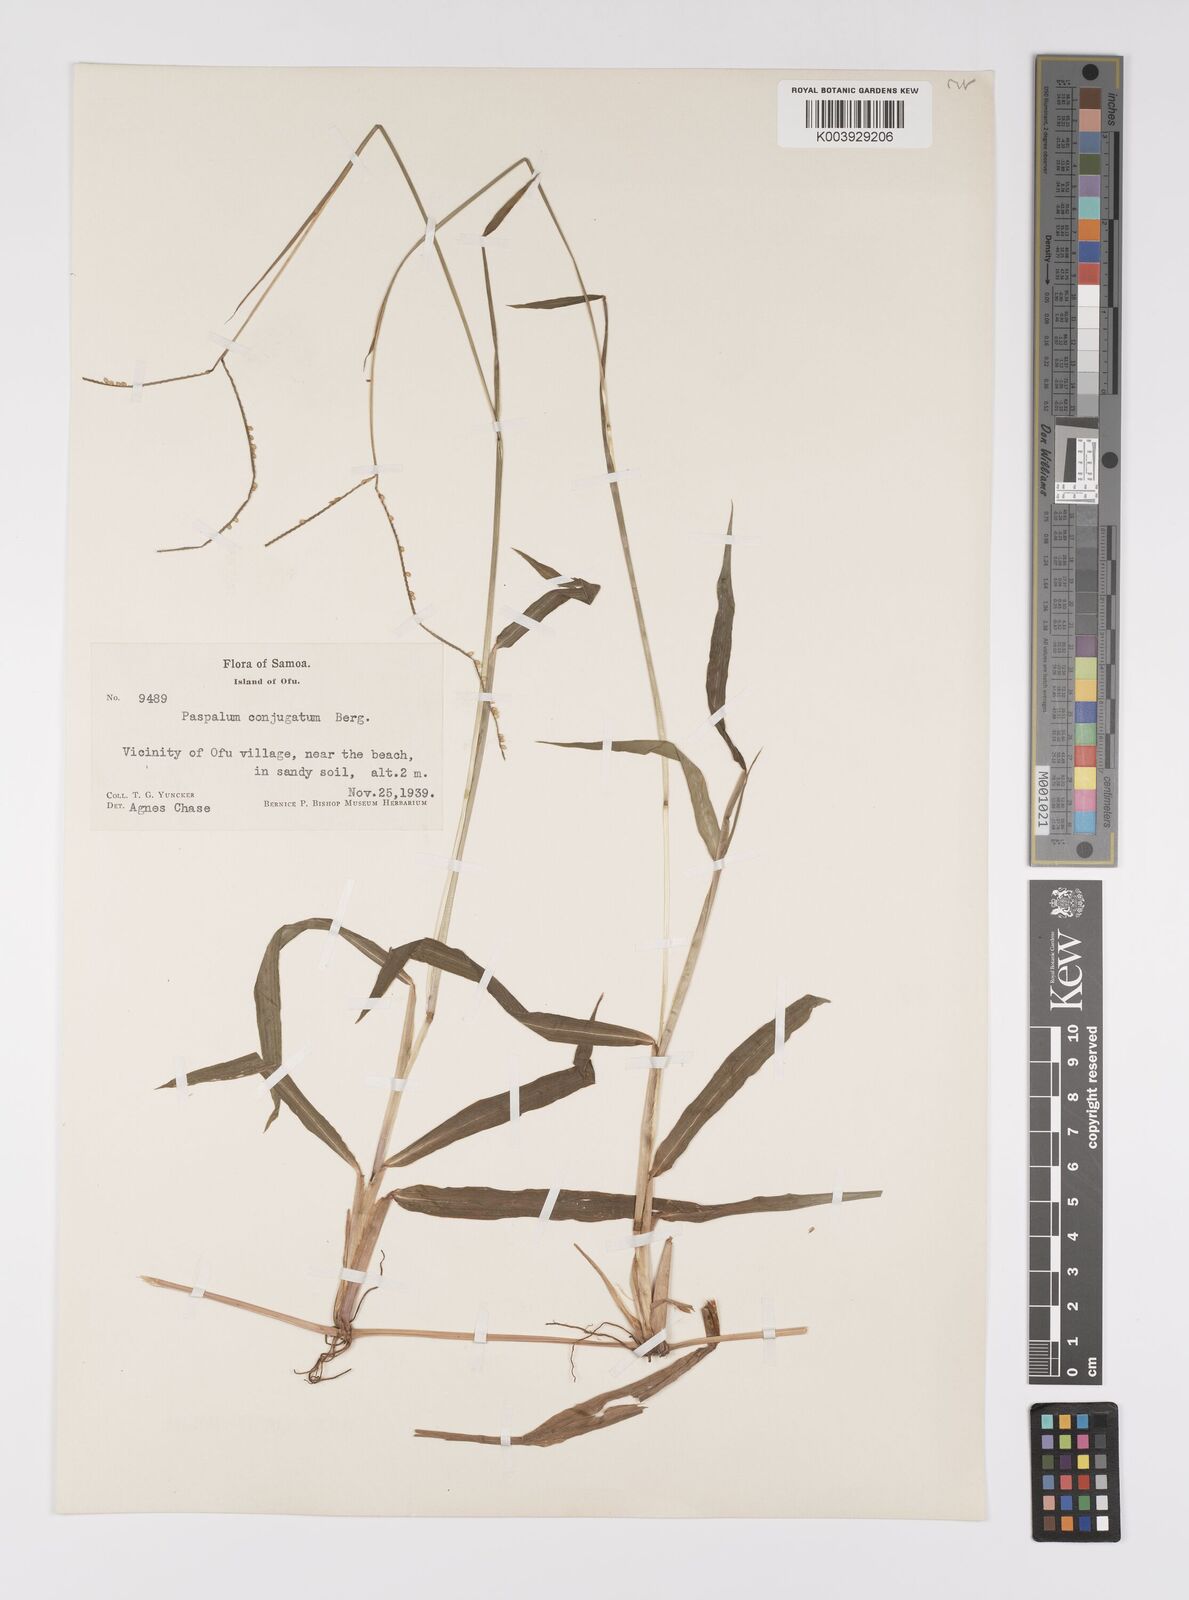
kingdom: Plantae
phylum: Tracheophyta
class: Liliopsida
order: Poales
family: Poaceae
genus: Paspalum
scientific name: Paspalum conjugatum
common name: Hilograss
